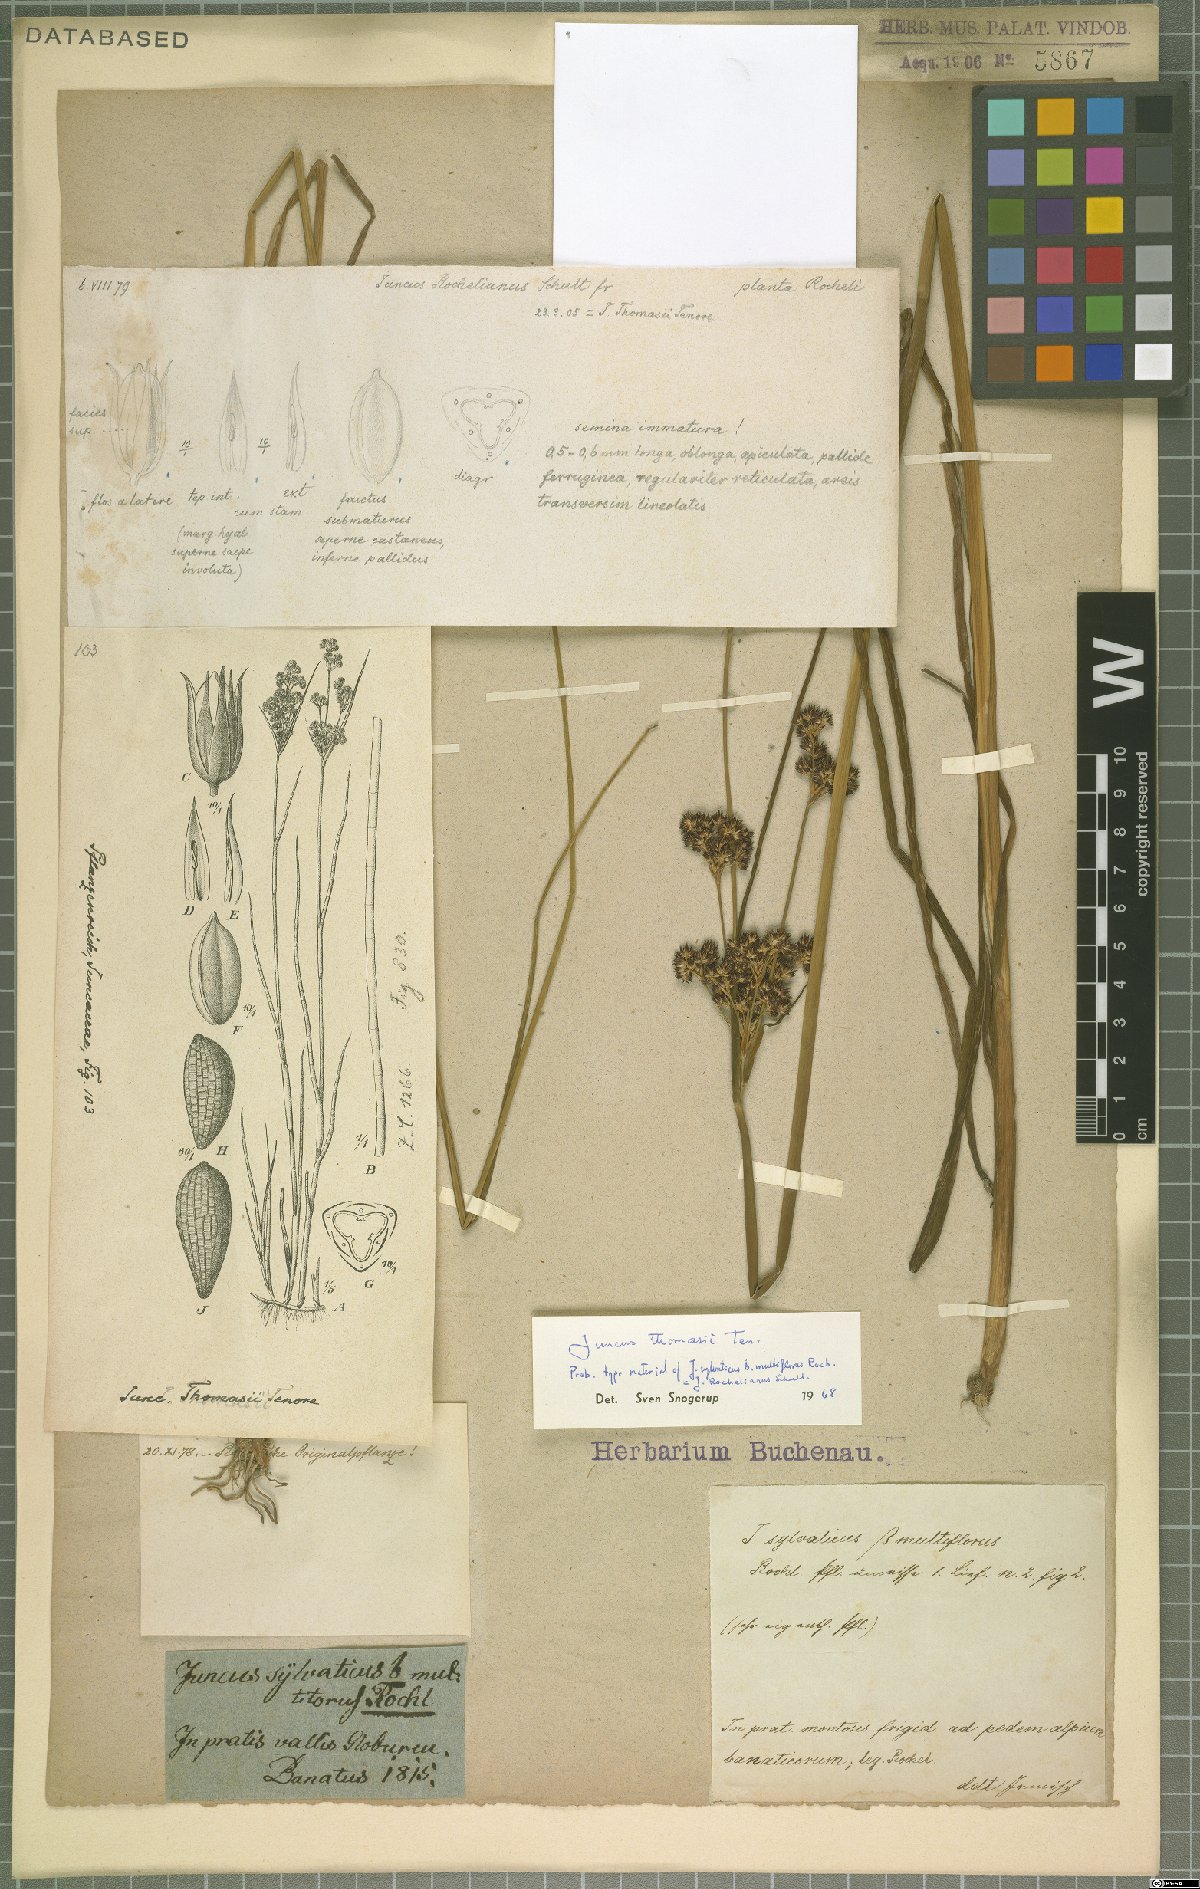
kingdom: Plantae
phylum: Tracheophyta
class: Liliopsida
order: Poales
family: Juncaceae
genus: Juncus
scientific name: Juncus thomasii
